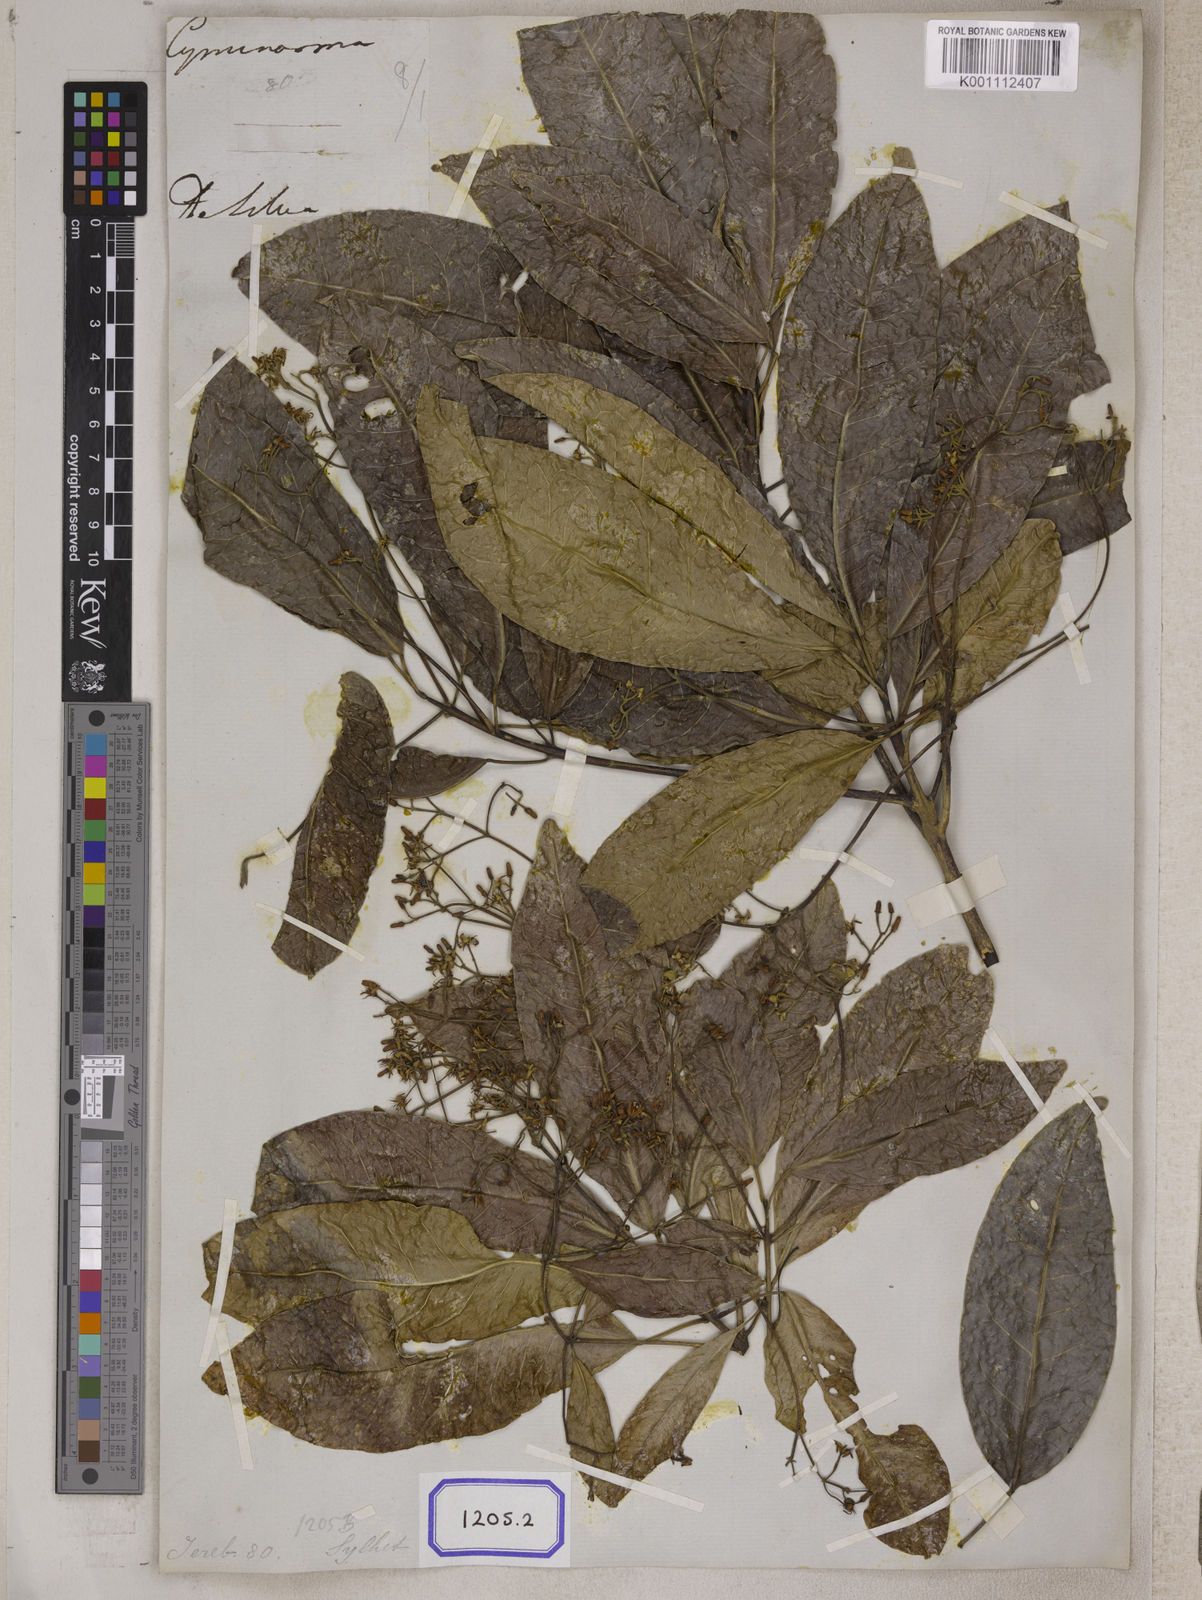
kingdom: Plantae
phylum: Tracheophyta
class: Magnoliopsida
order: Sapindales
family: Rutaceae
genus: Acronychia
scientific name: Acronychia
